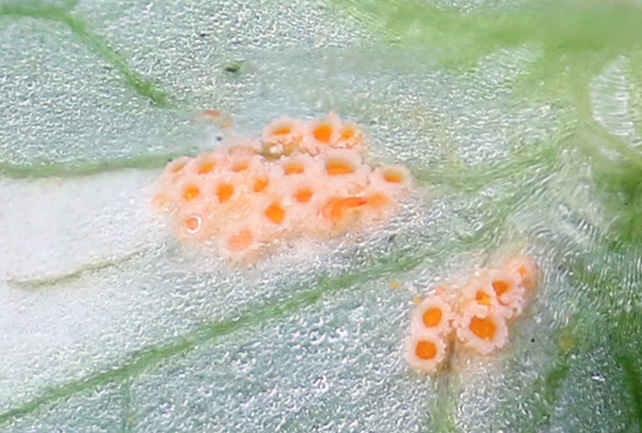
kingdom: Fungi
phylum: Basidiomycota
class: Pucciniomycetes
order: Pucciniales
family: Pucciniaceae
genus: Uromyces
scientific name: Uromyces dactylidis
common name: ranunkel-encellerust
